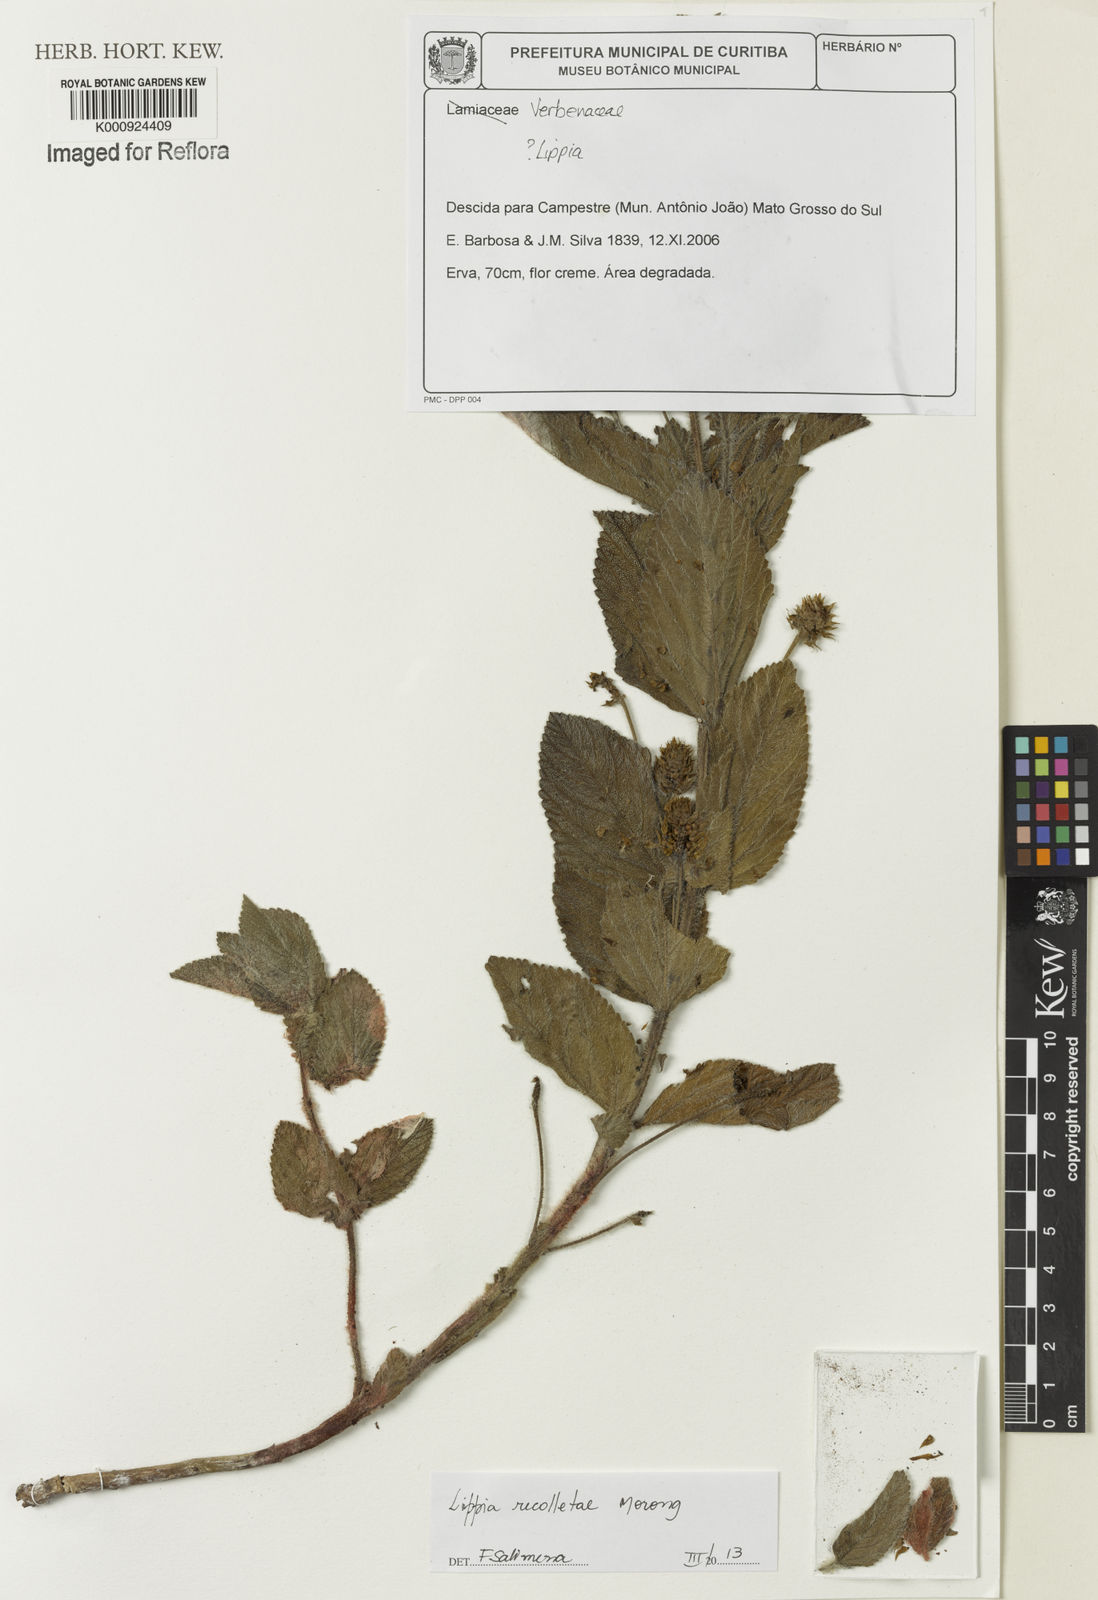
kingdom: Plantae
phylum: Tracheophyta
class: Magnoliopsida
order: Lamiales
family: Verbenaceae
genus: Lippia
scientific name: Lippia
